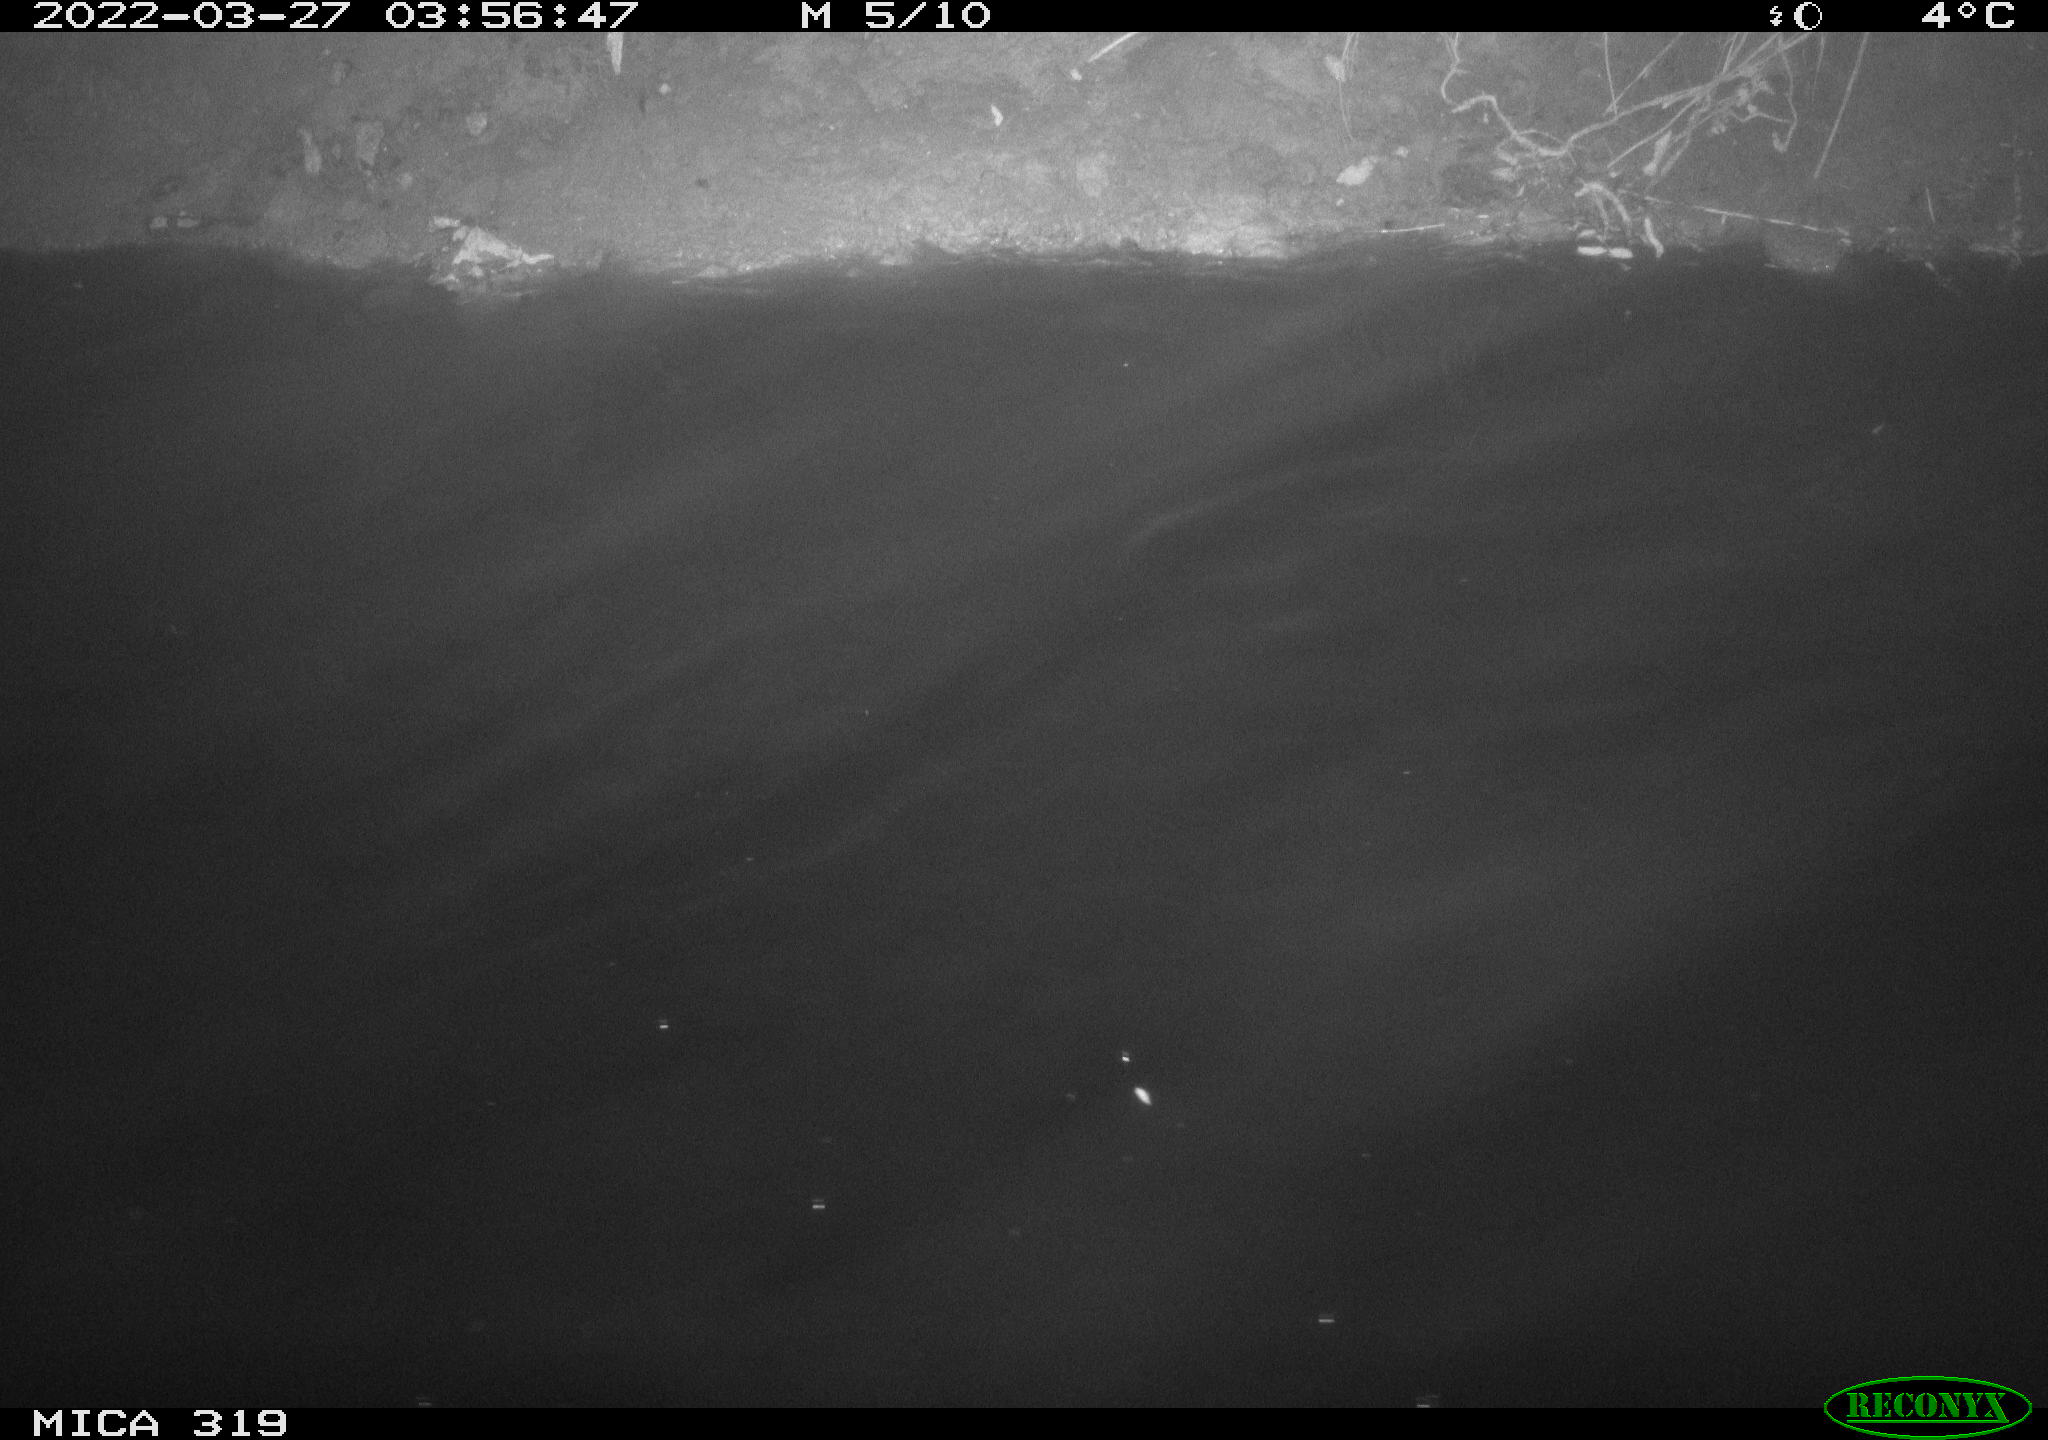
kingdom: Animalia
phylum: Chordata
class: Aves
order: Anseriformes
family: Anatidae
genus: Mareca
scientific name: Mareca strepera
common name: Gadwall
